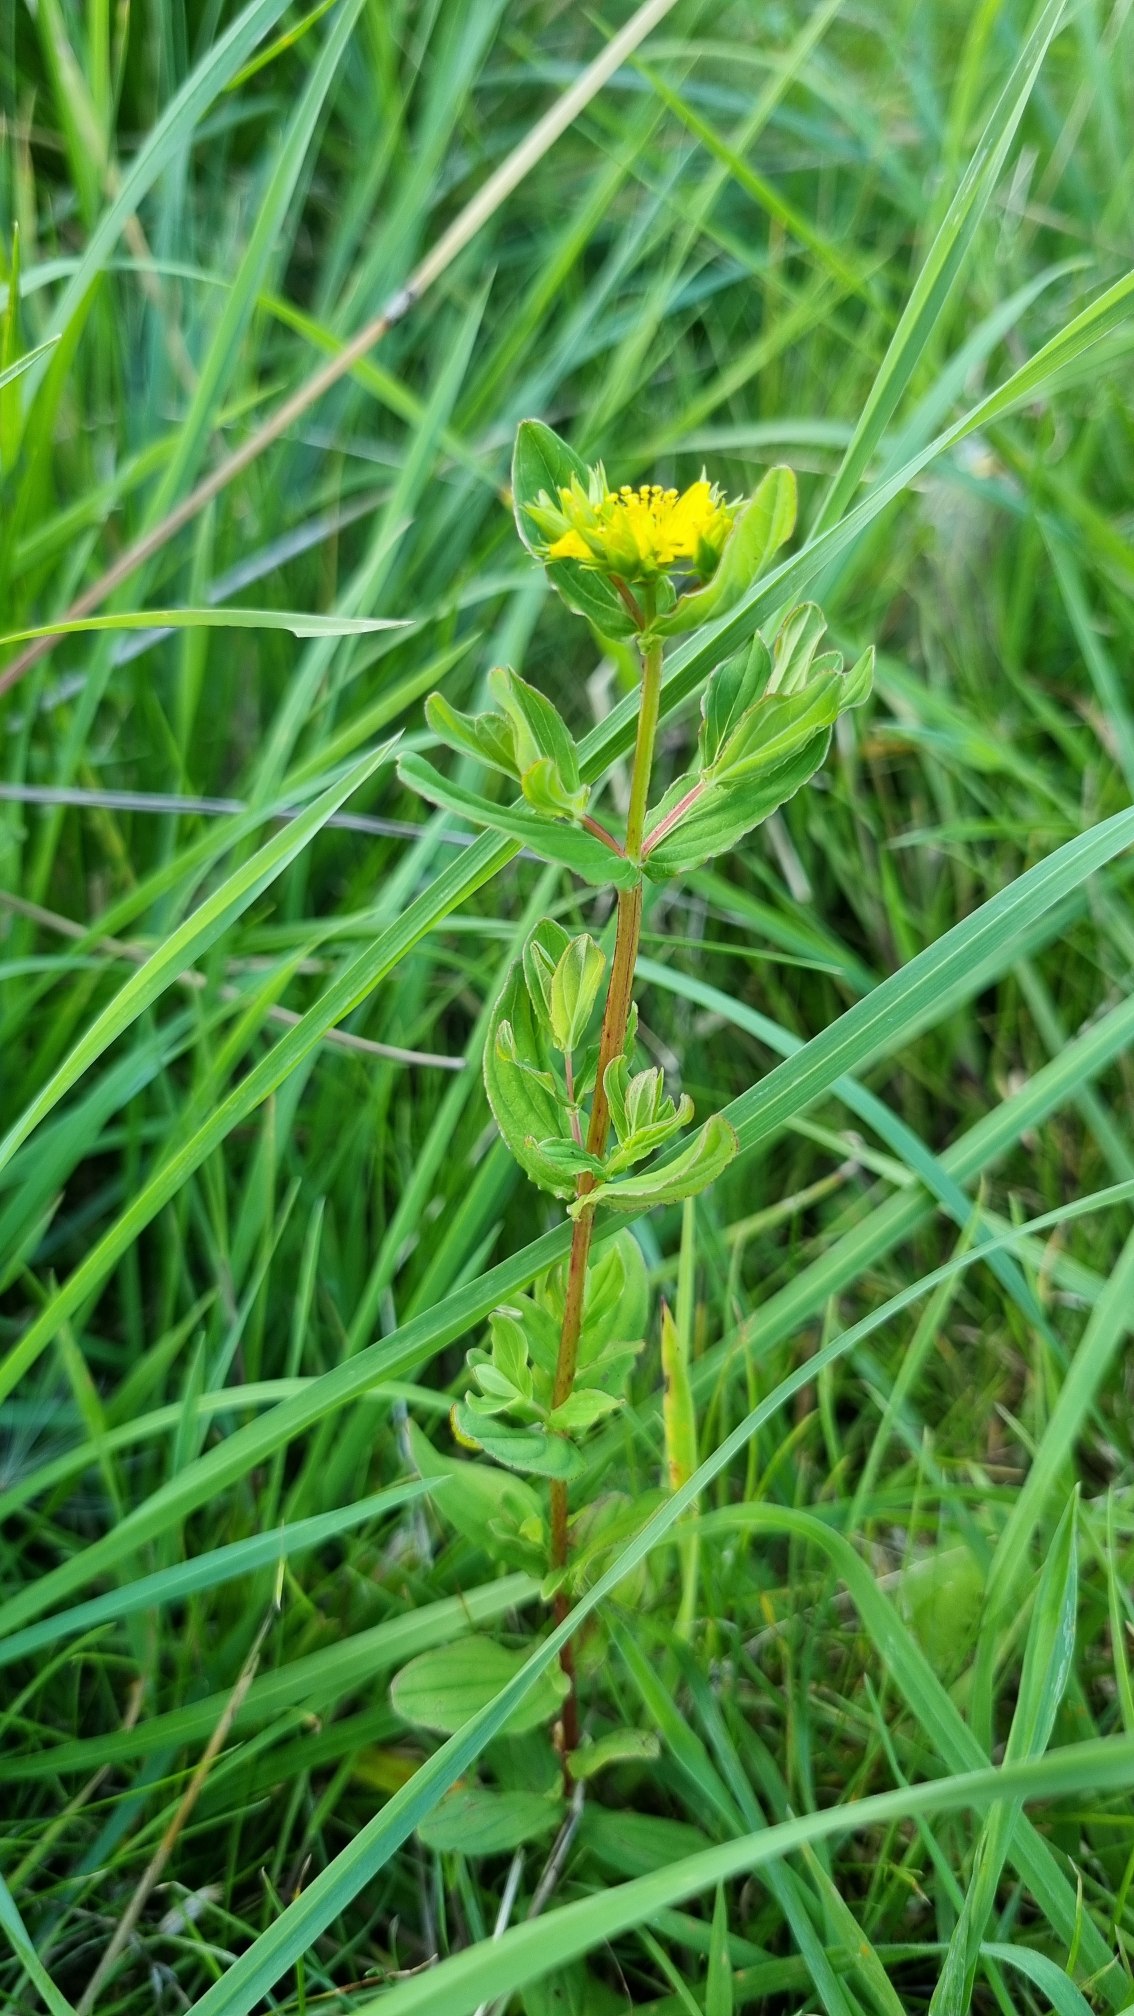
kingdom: Plantae
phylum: Tracheophyta
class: Magnoliopsida
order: Malpighiales
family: Hypericaceae
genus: Hypericum
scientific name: Hypericum tetrapterum
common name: Vinget perikon
